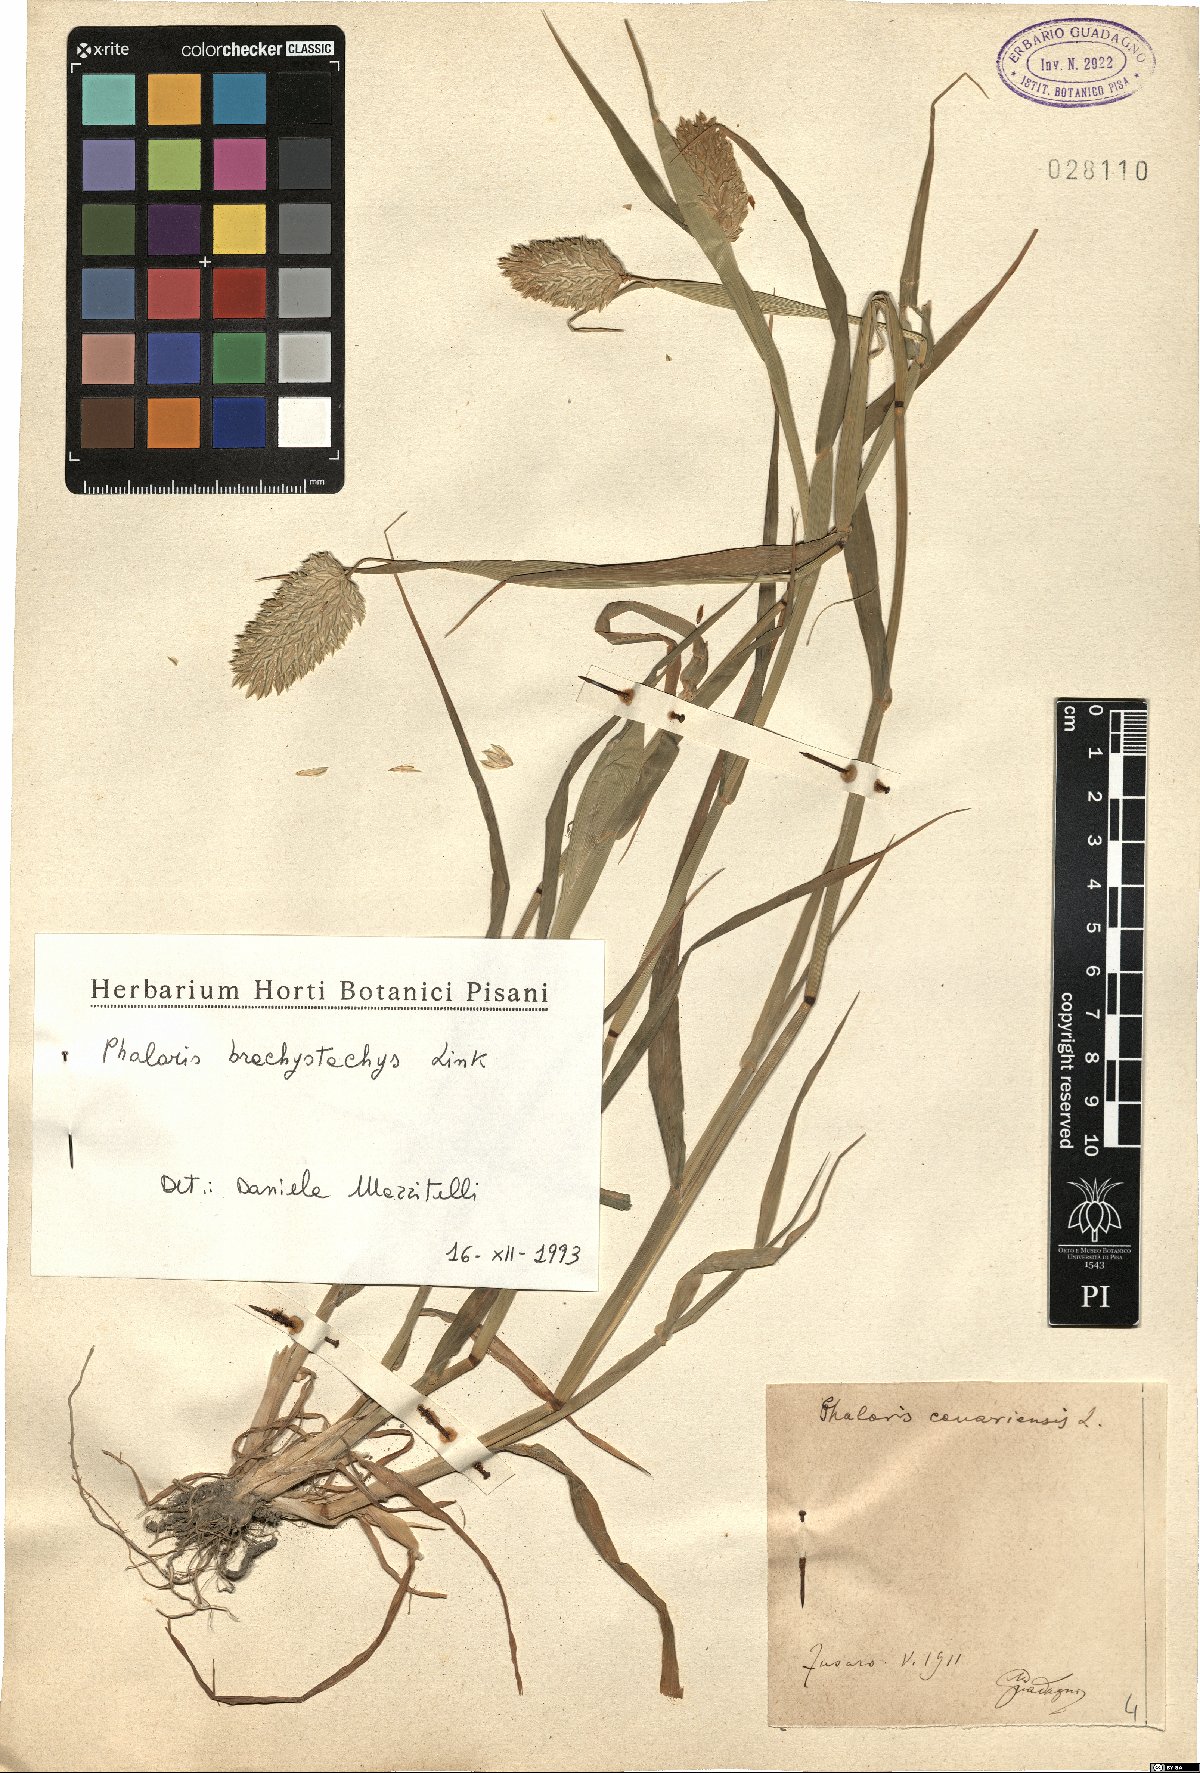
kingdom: Plantae
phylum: Tracheophyta
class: Liliopsida
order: Poales
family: Poaceae
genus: Phalaris
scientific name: Phalaris brachystachys
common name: Confused canary-grass
